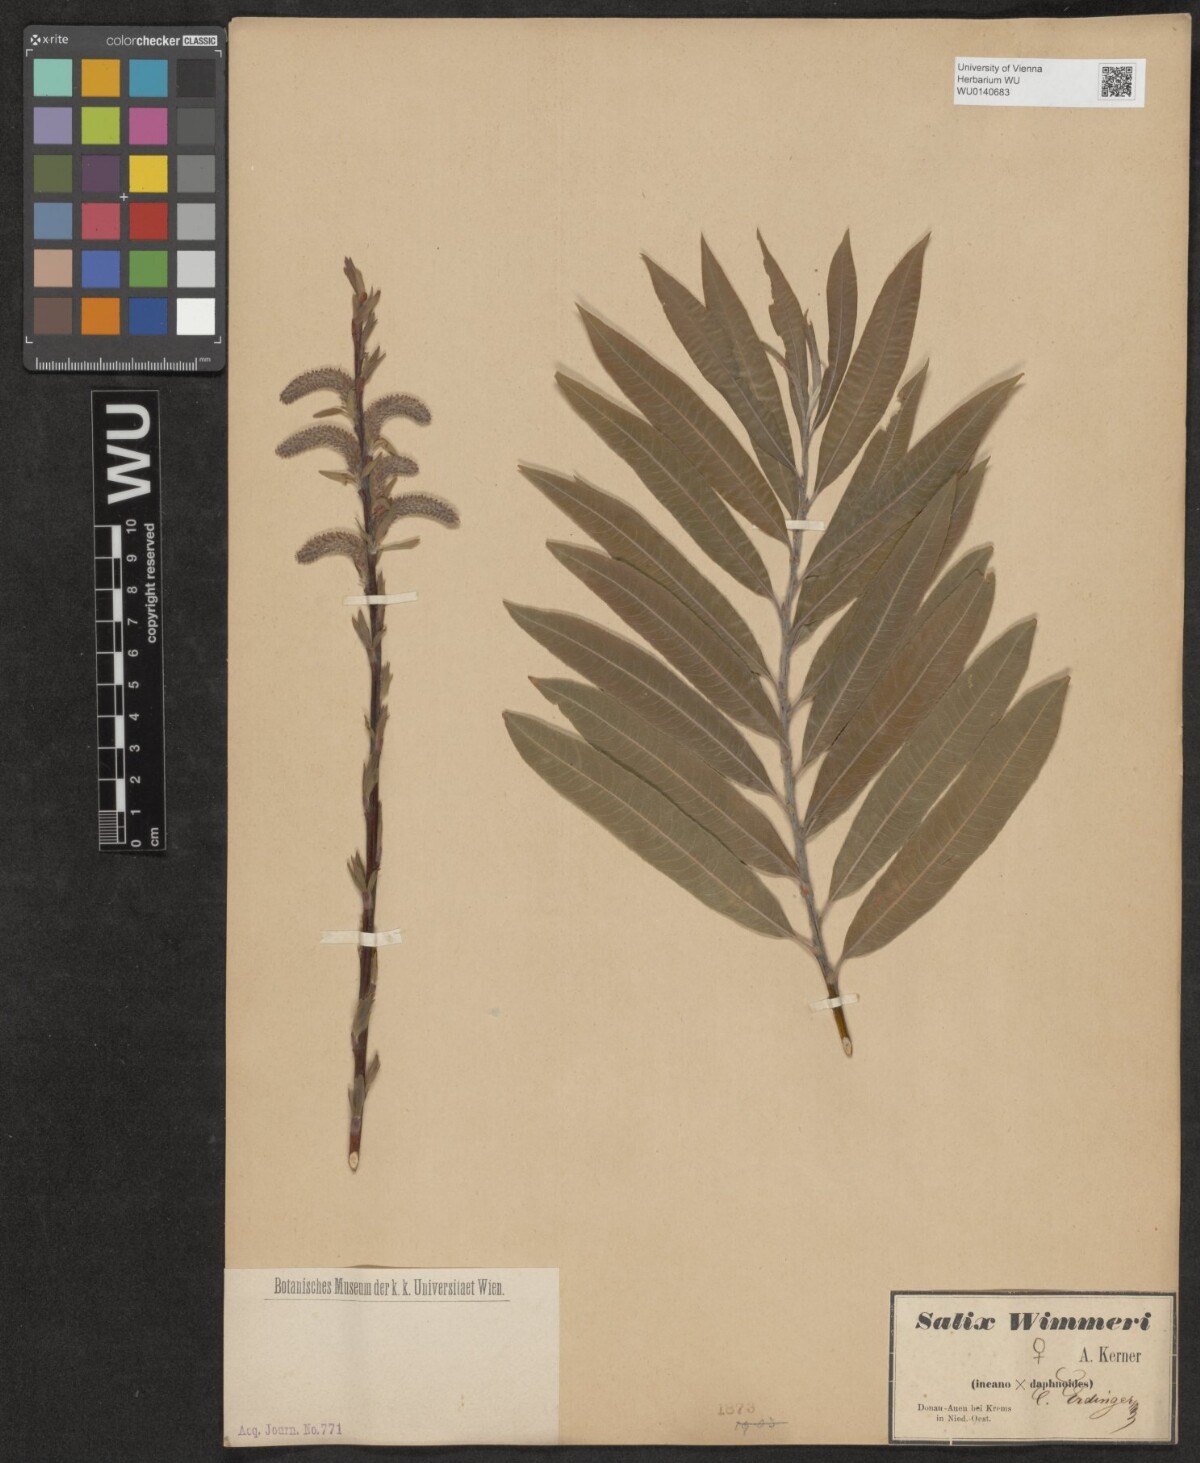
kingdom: Plantae
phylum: Tracheophyta
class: Magnoliopsida
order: Malpighiales
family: Salicaceae
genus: Salix
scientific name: Salix
